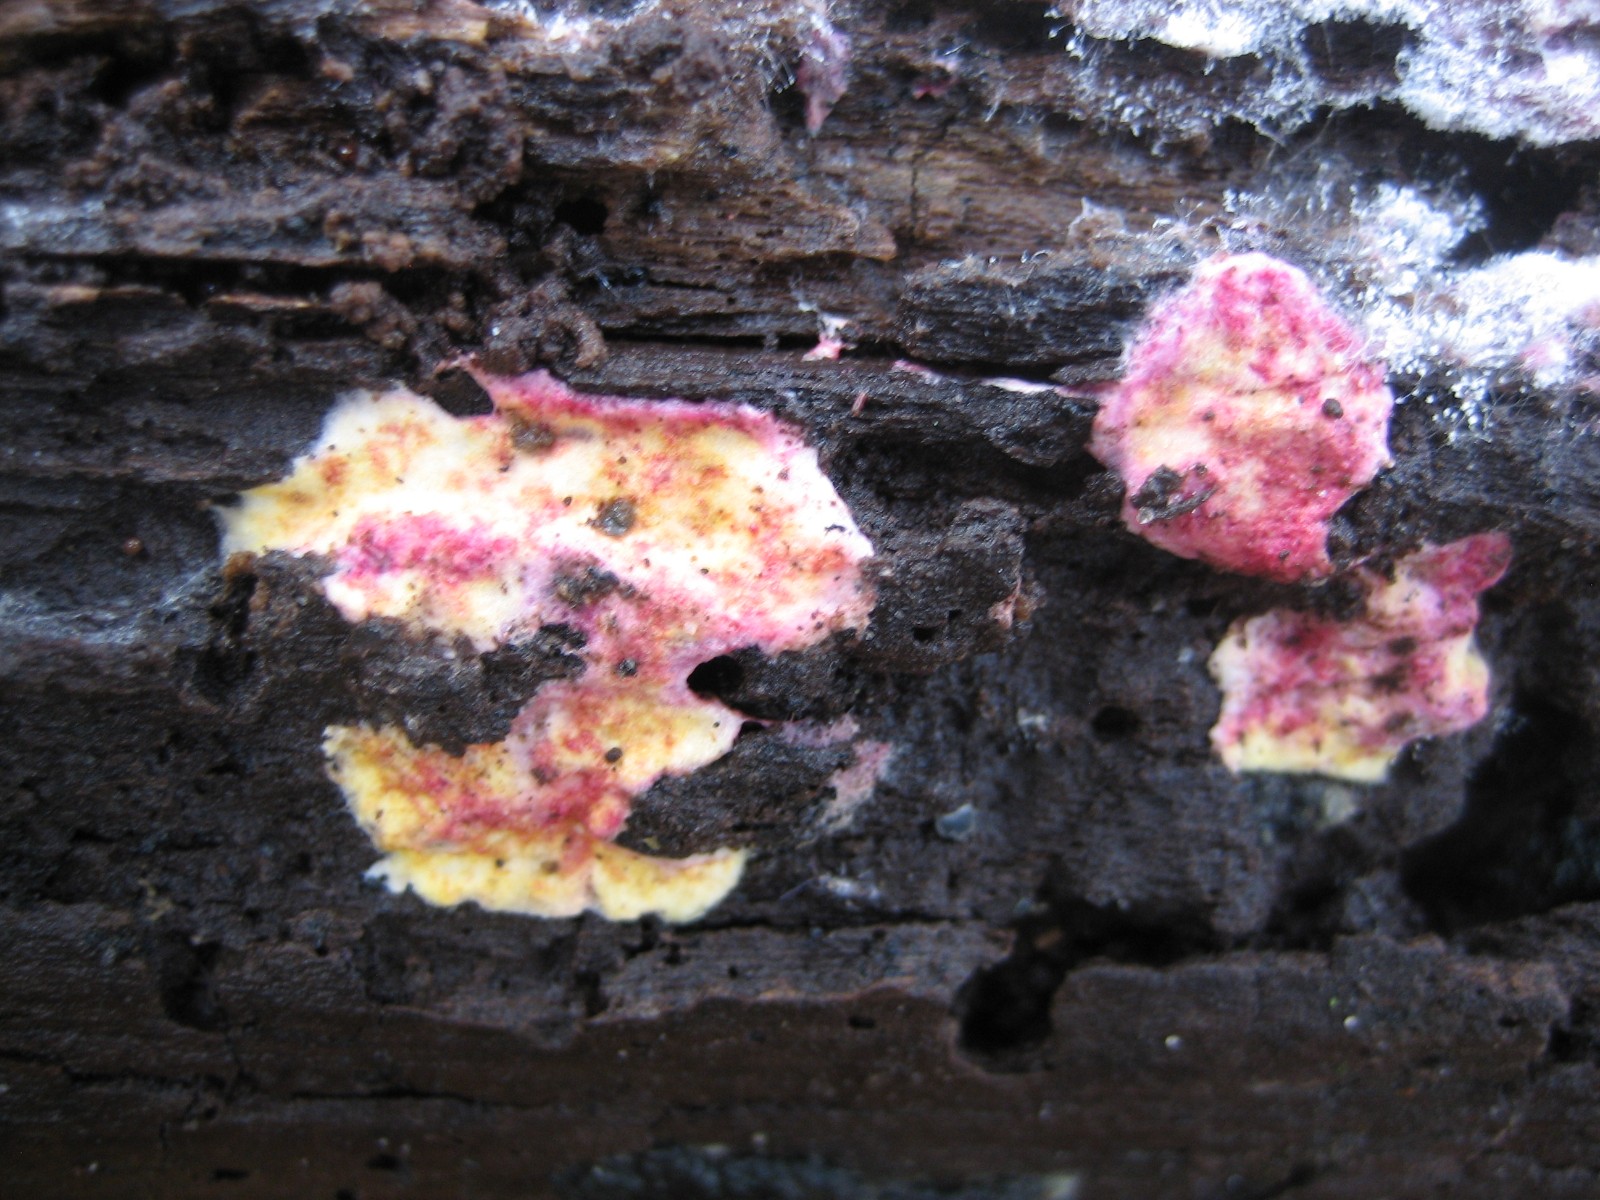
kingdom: Fungi
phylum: Ascomycota
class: Sordariomycetes
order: Hypocreales
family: Hypocreaceae
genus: Hypomyces
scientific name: Hypomyces rosellus
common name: rosa snylteskorpe
